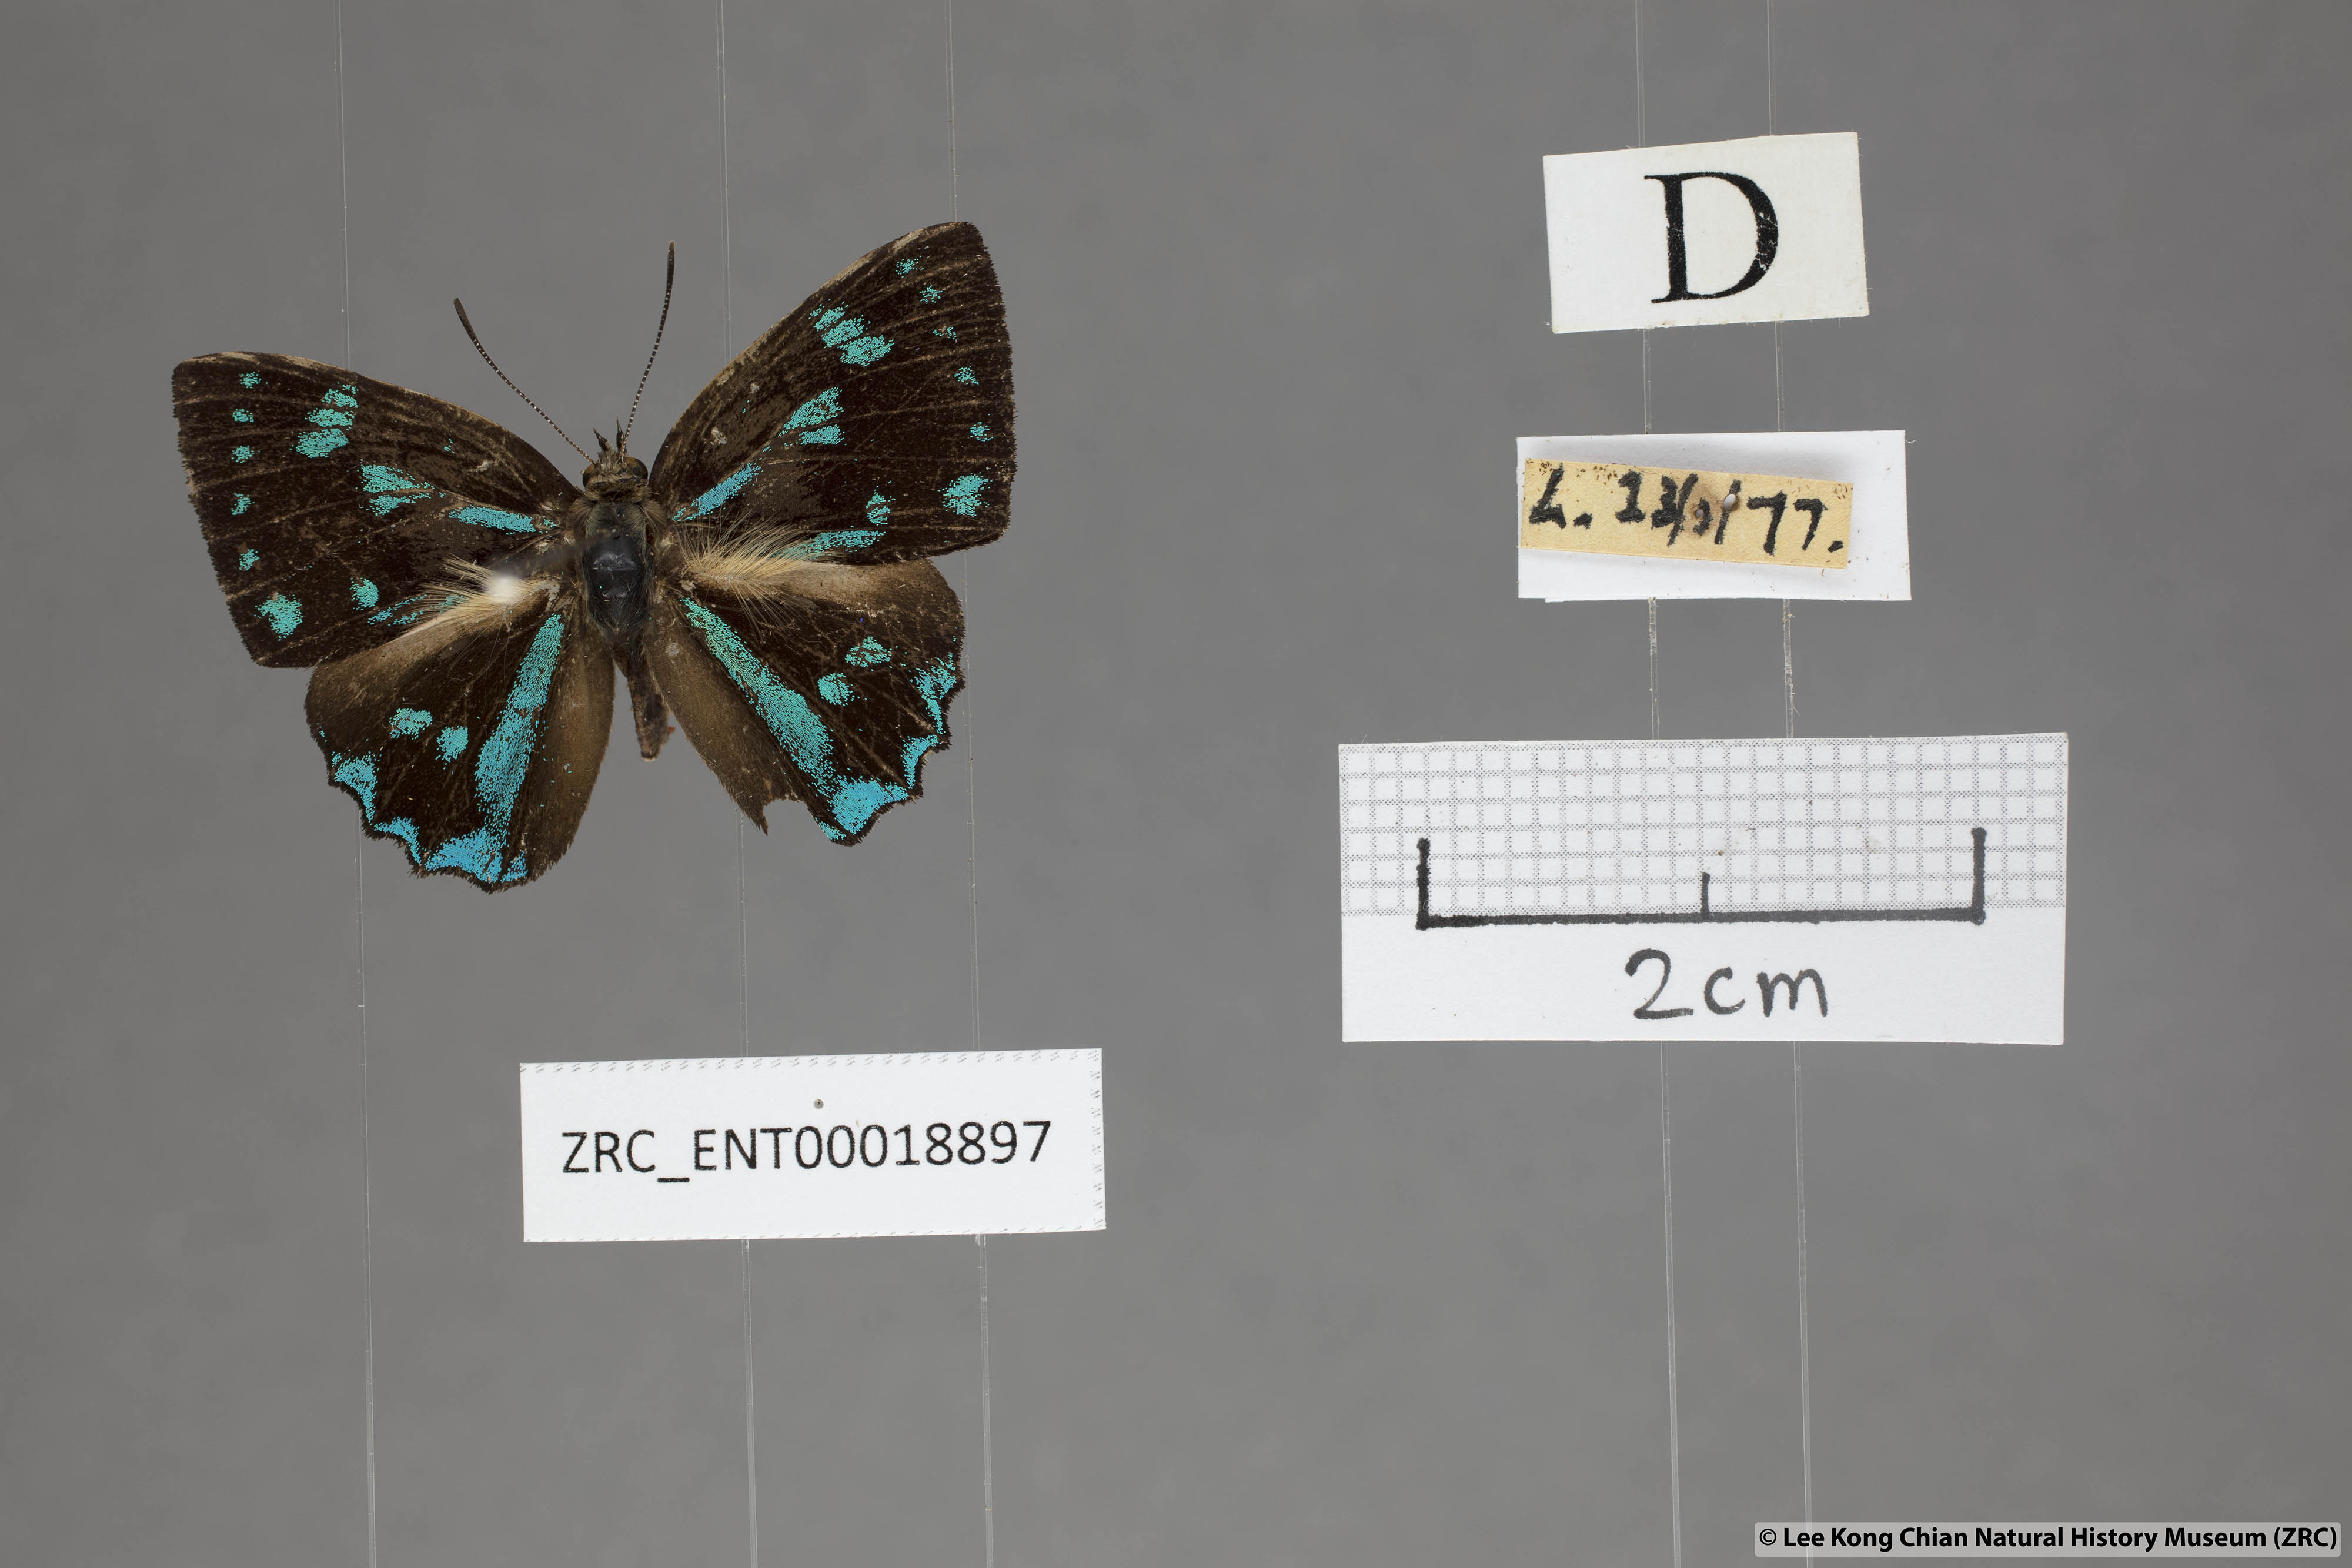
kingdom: Animalia
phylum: Arthropoda
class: Insecta
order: Lepidoptera
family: Lycaenidae
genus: Simiskina
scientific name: Simiskina
